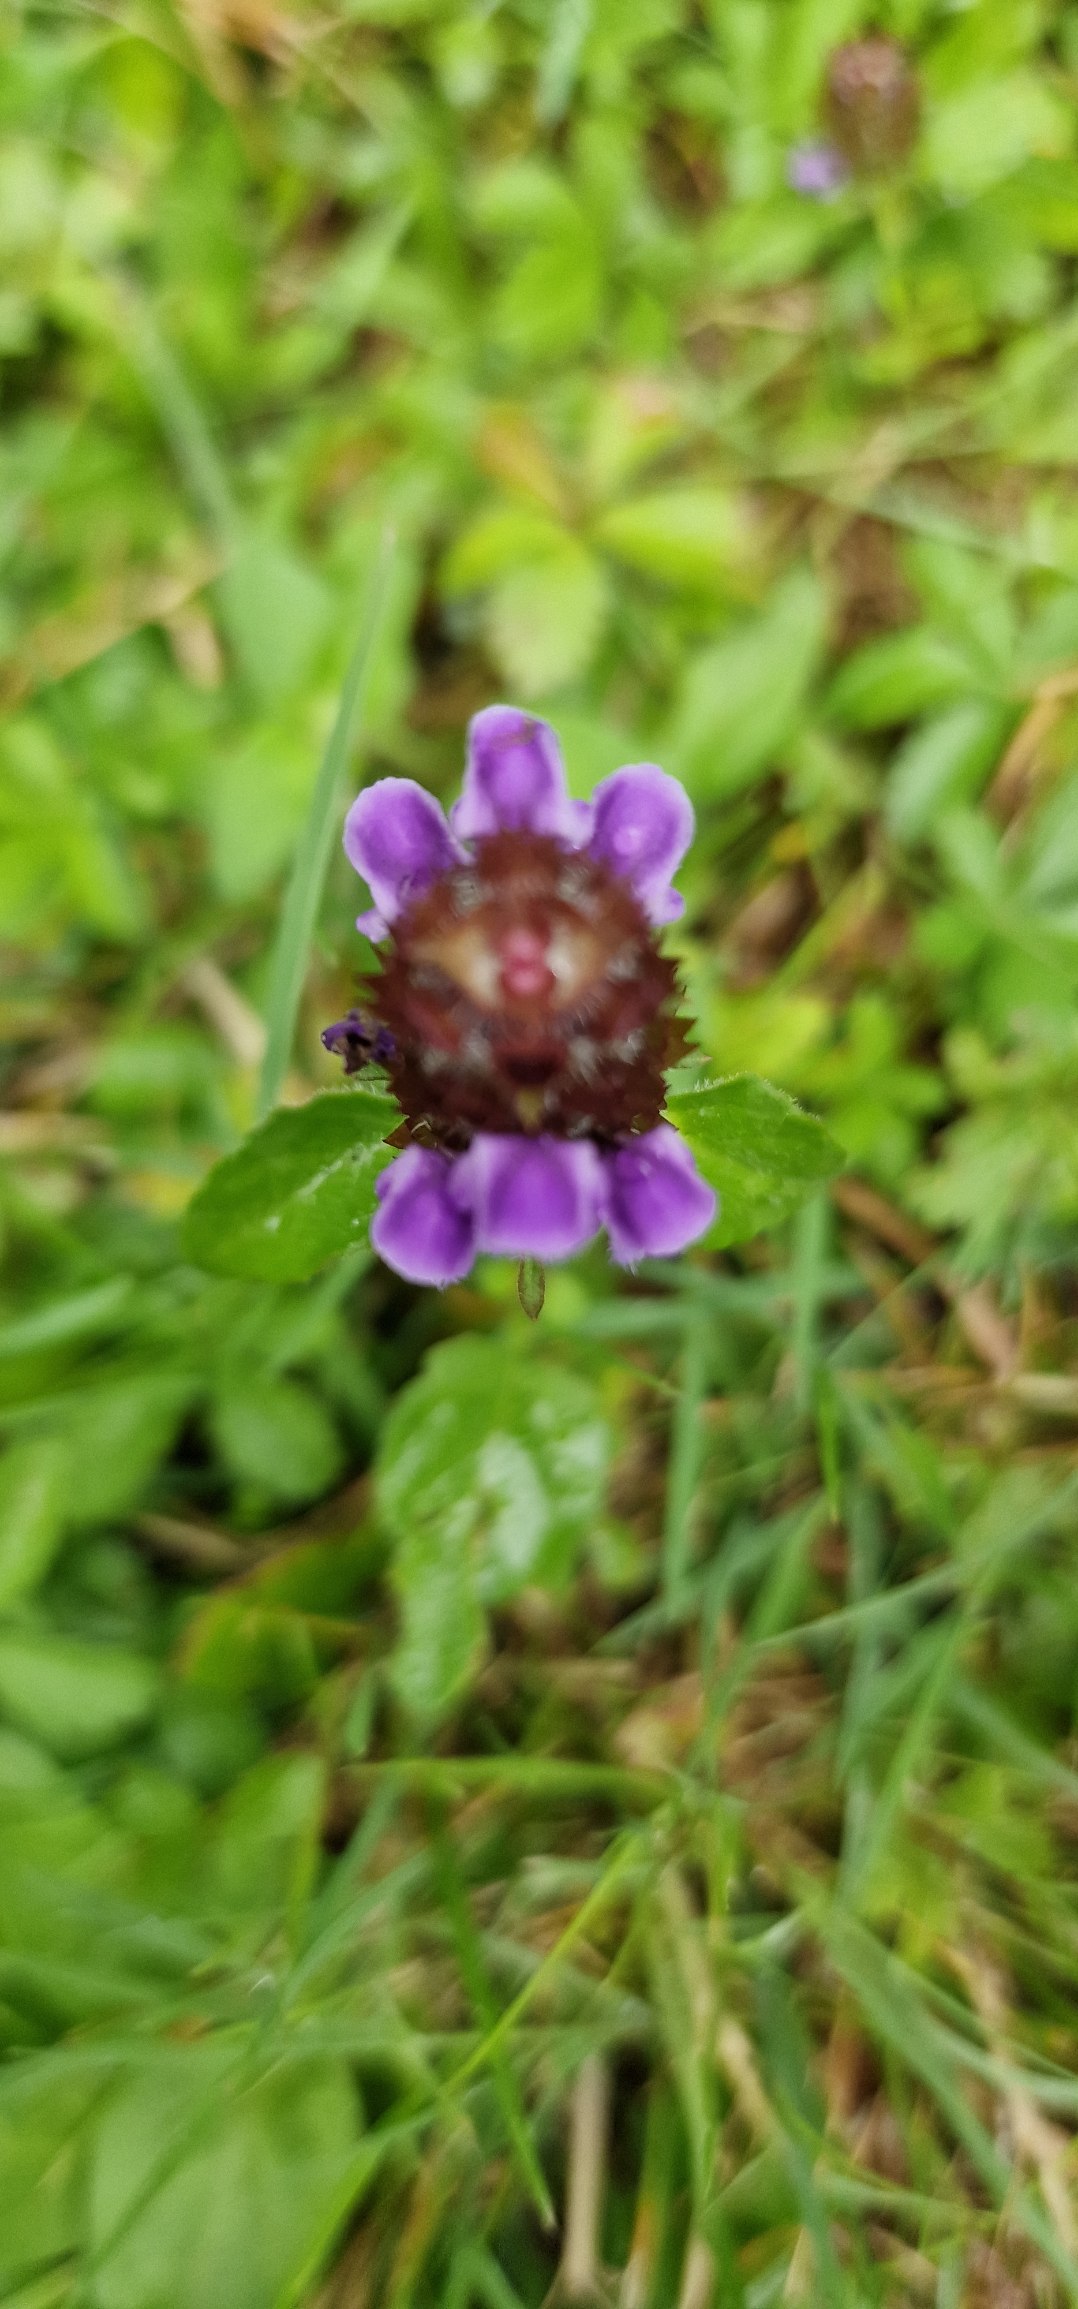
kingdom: Plantae
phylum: Tracheophyta
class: Magnoliopsida
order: Lamiales
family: Lamiaceae
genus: Prunella
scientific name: Prunella vulgaris
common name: Almindelig brunelle
